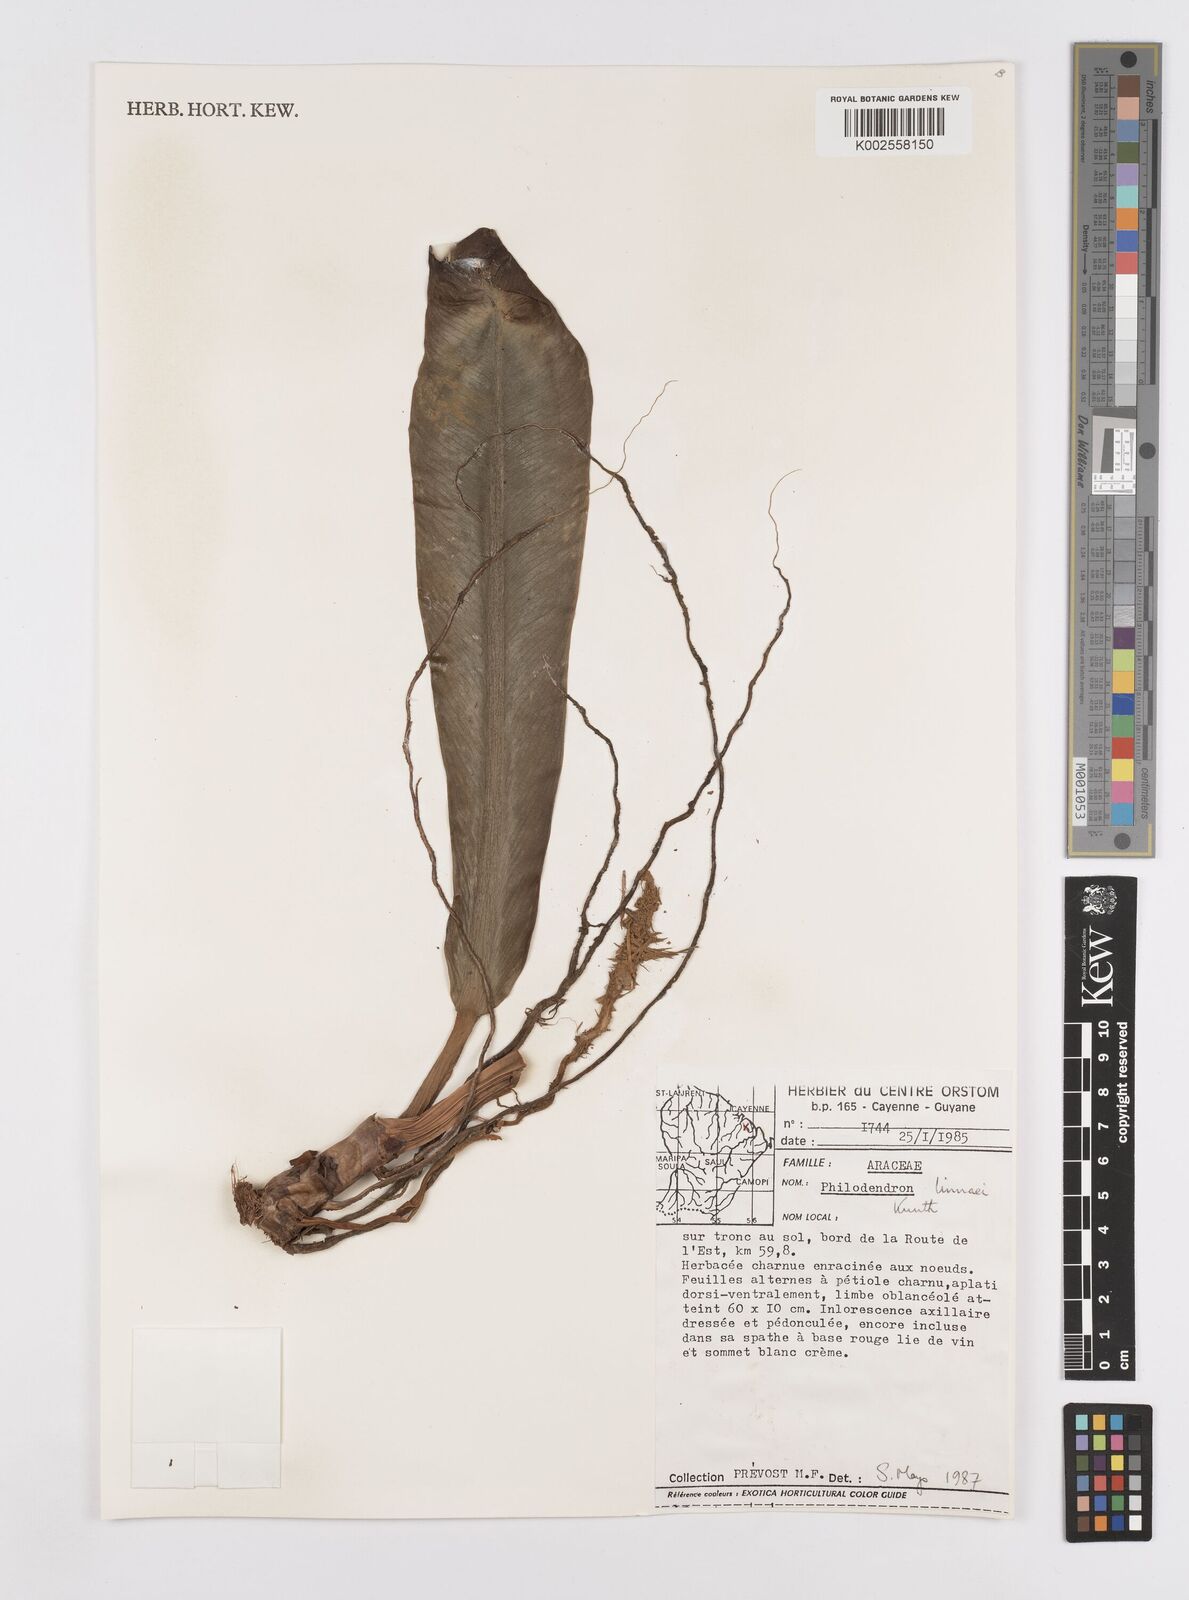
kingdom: Plantae
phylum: Tracheophyta
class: Liliopsida
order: Alismatales
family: Araceae
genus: Philodendron
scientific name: Philodendron linnaei
